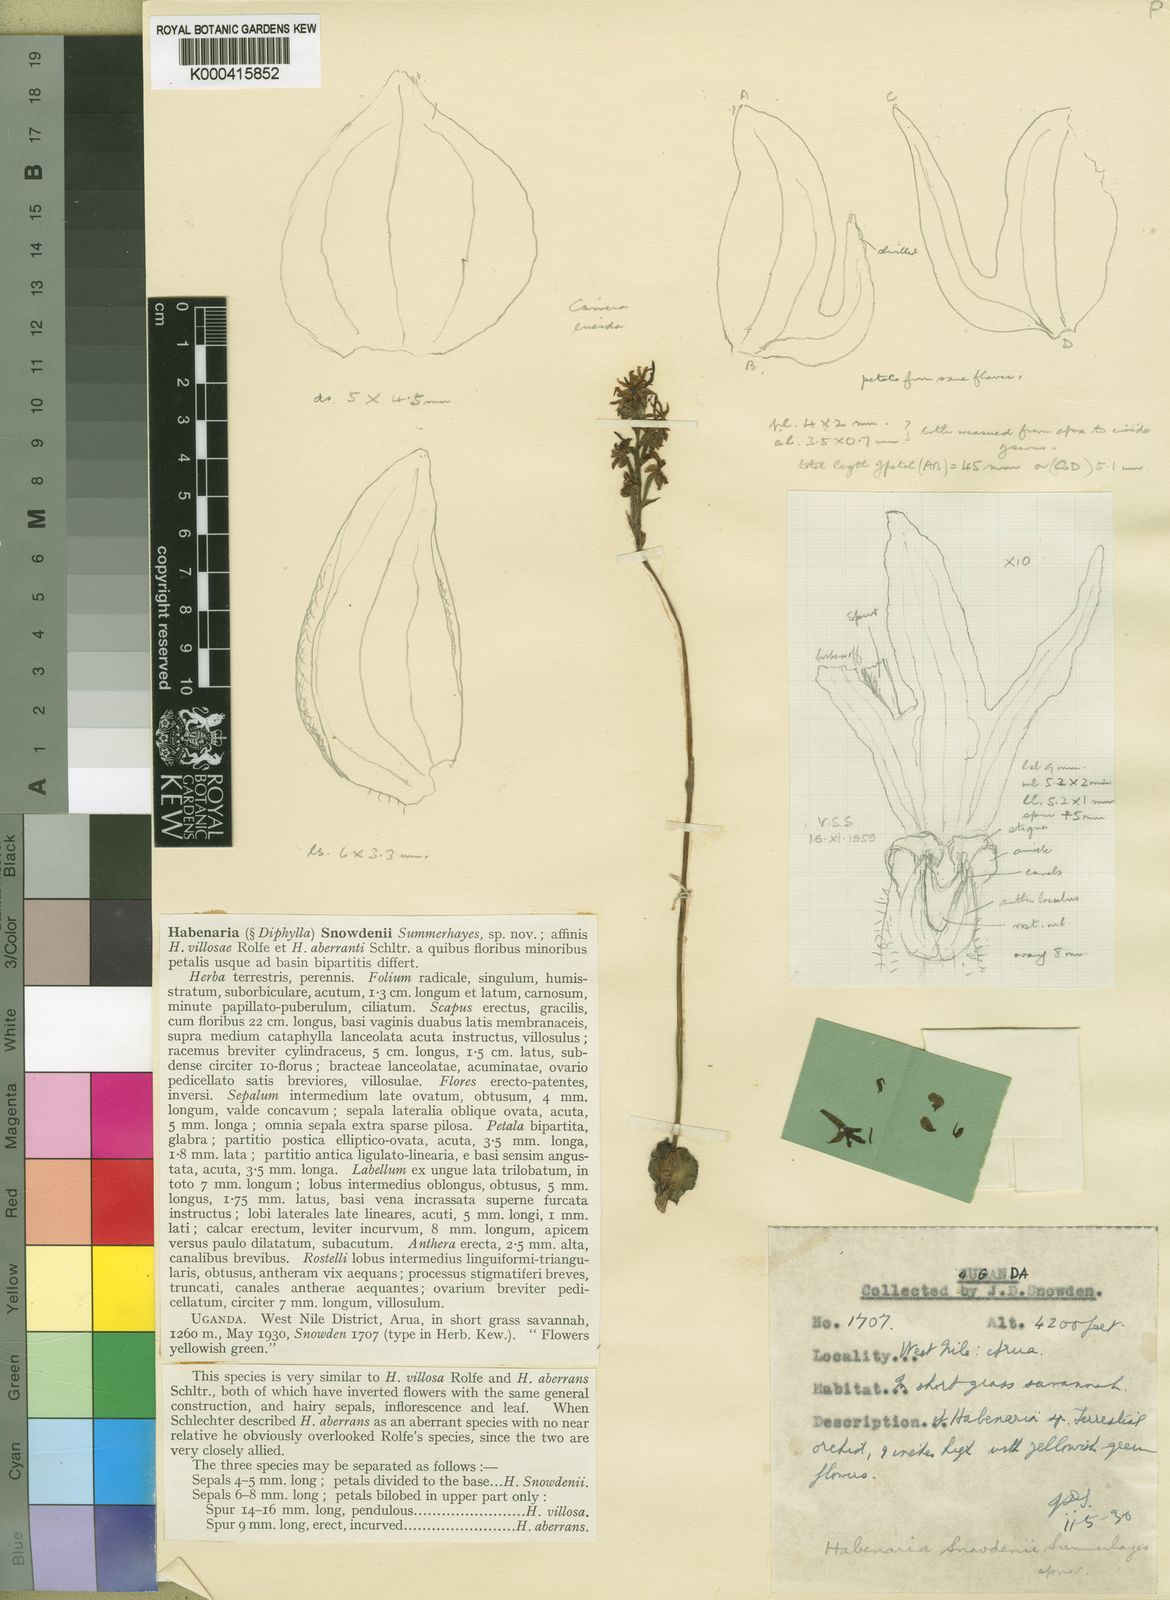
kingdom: Plantae
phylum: Tracheophyta
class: Liliopsida
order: Asparagales
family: Orchidaceae
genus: Habenaria
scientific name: Habenaria snowdenii
